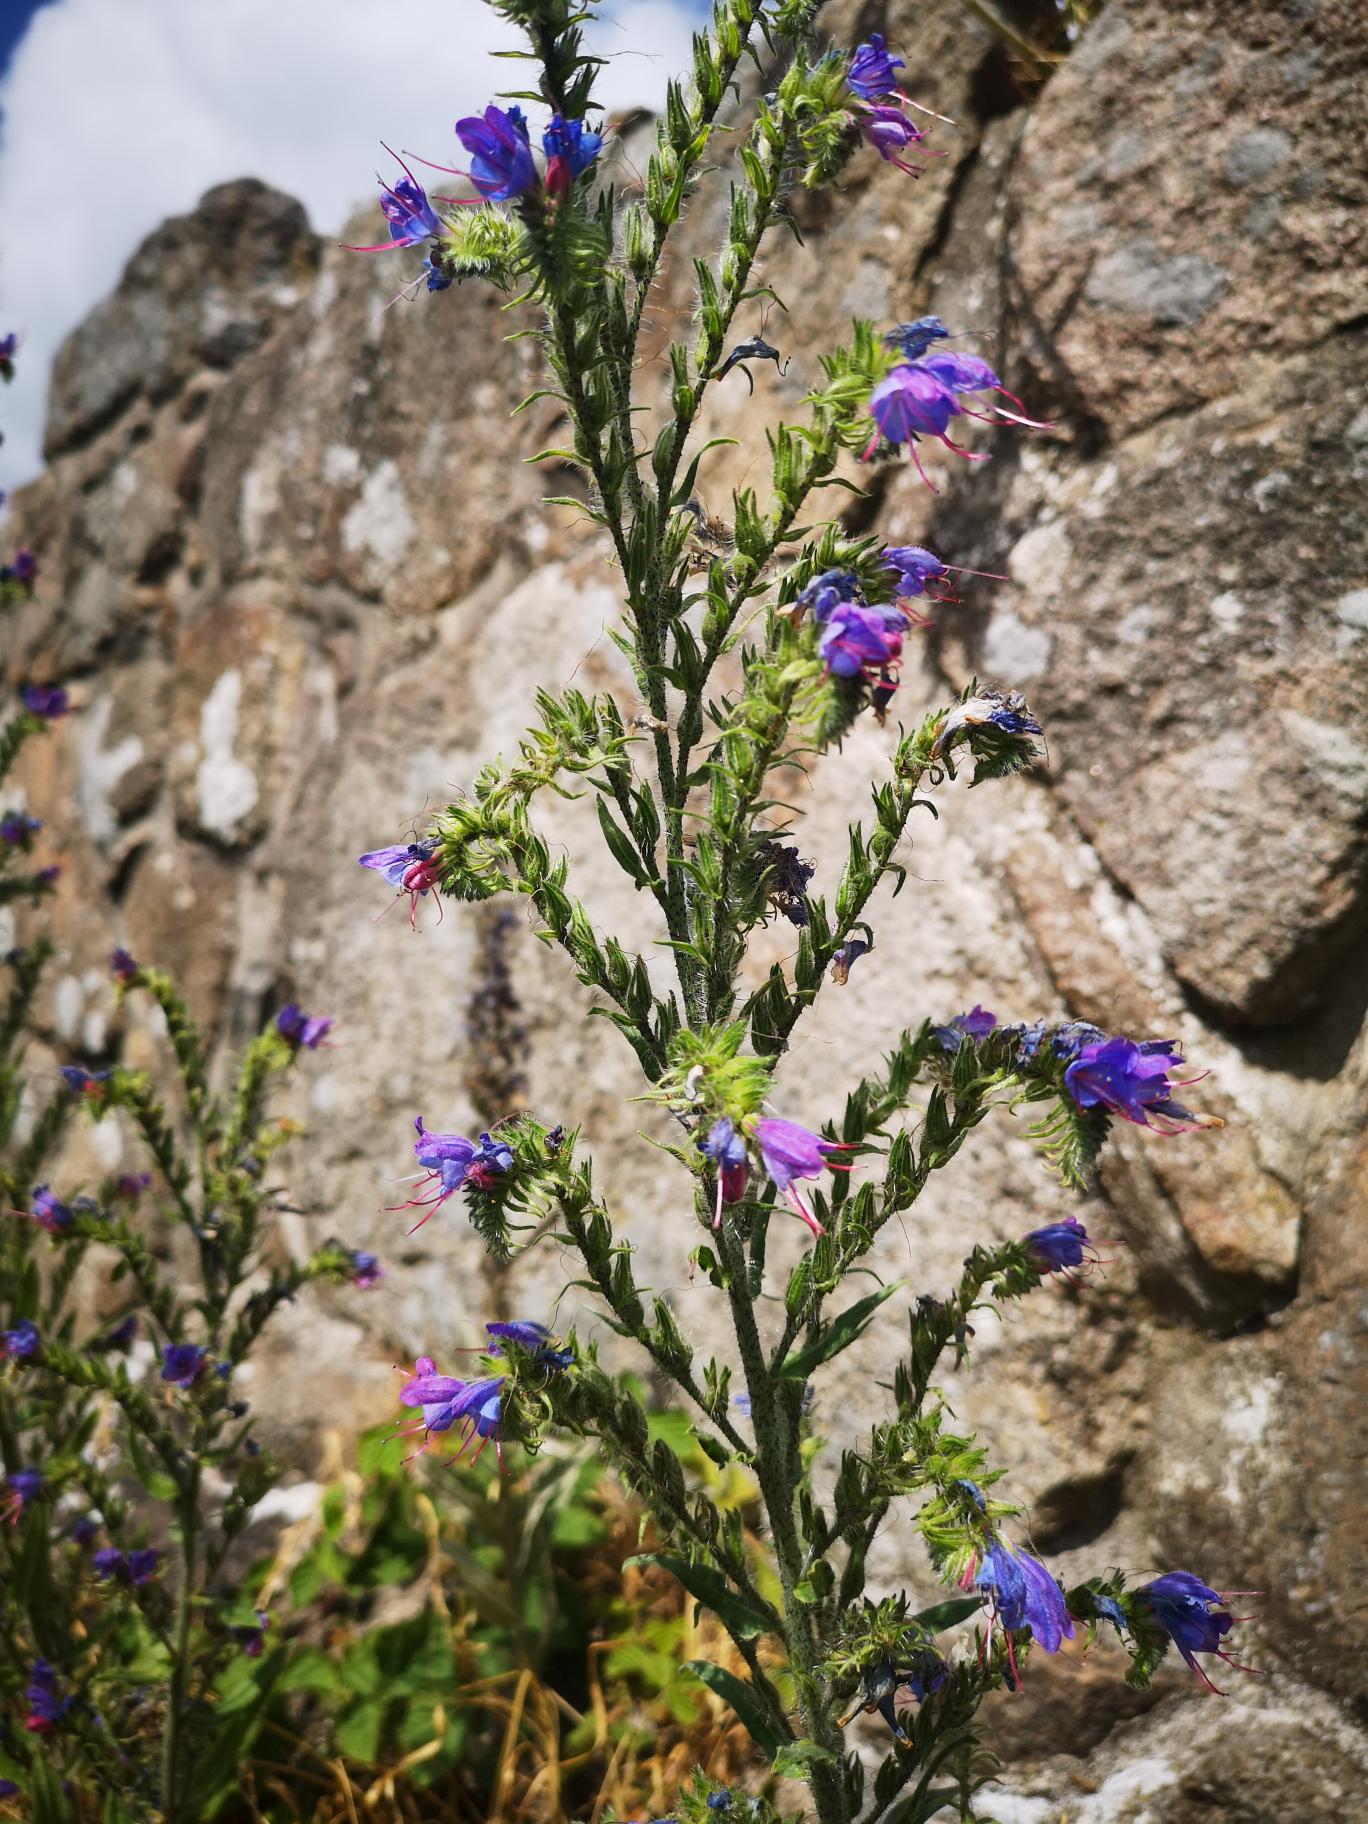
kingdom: Plantae
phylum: Tracheophyta
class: Magnoliopsida
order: Boraginales
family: Boraginaceae
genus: Echium
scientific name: Echium vulgare
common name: Slangehoved
